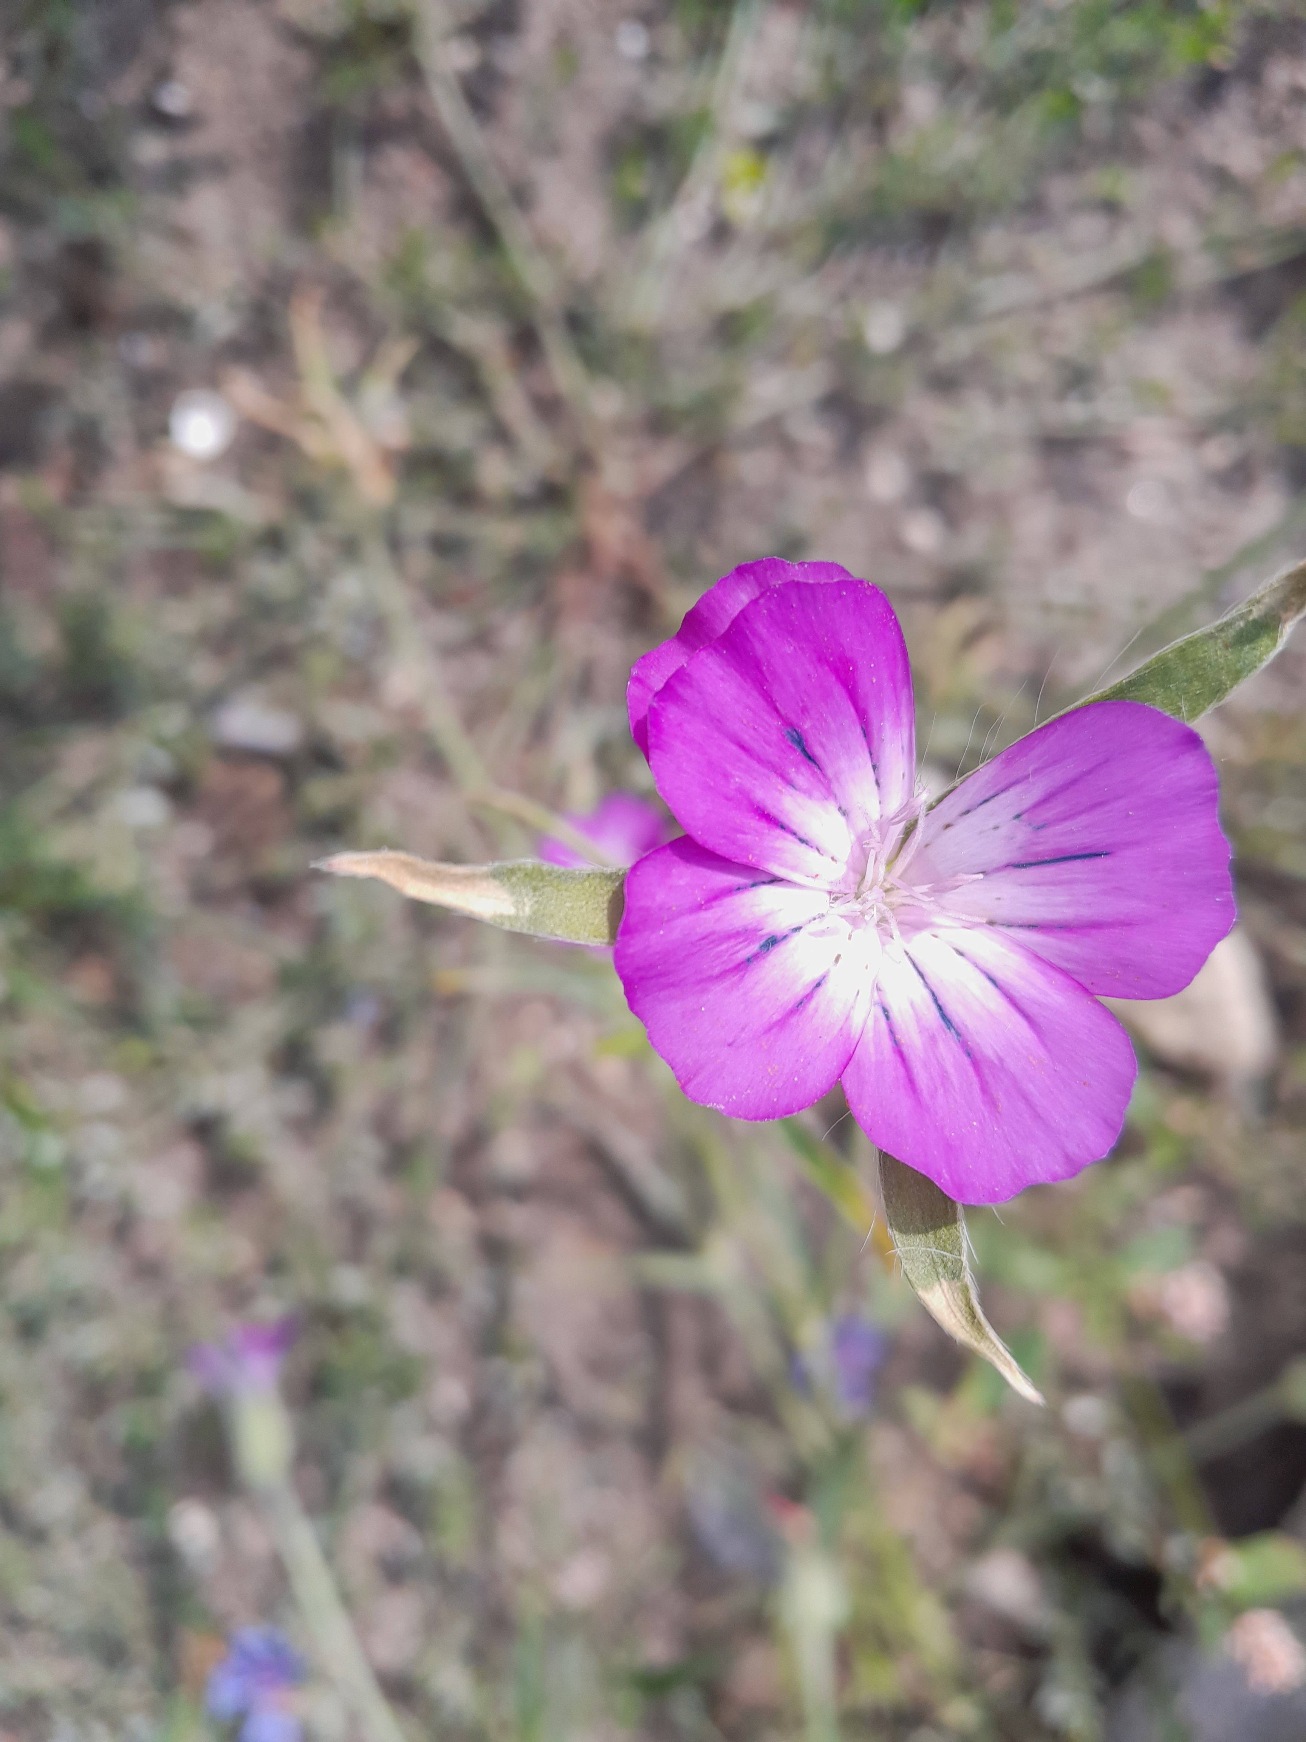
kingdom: Plantae
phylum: Tracheophyta
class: Magnoliopsida
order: Caryophyllales
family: Caryophyllaceae
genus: Agrostemma
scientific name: Agrostemma githago
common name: Klinte
